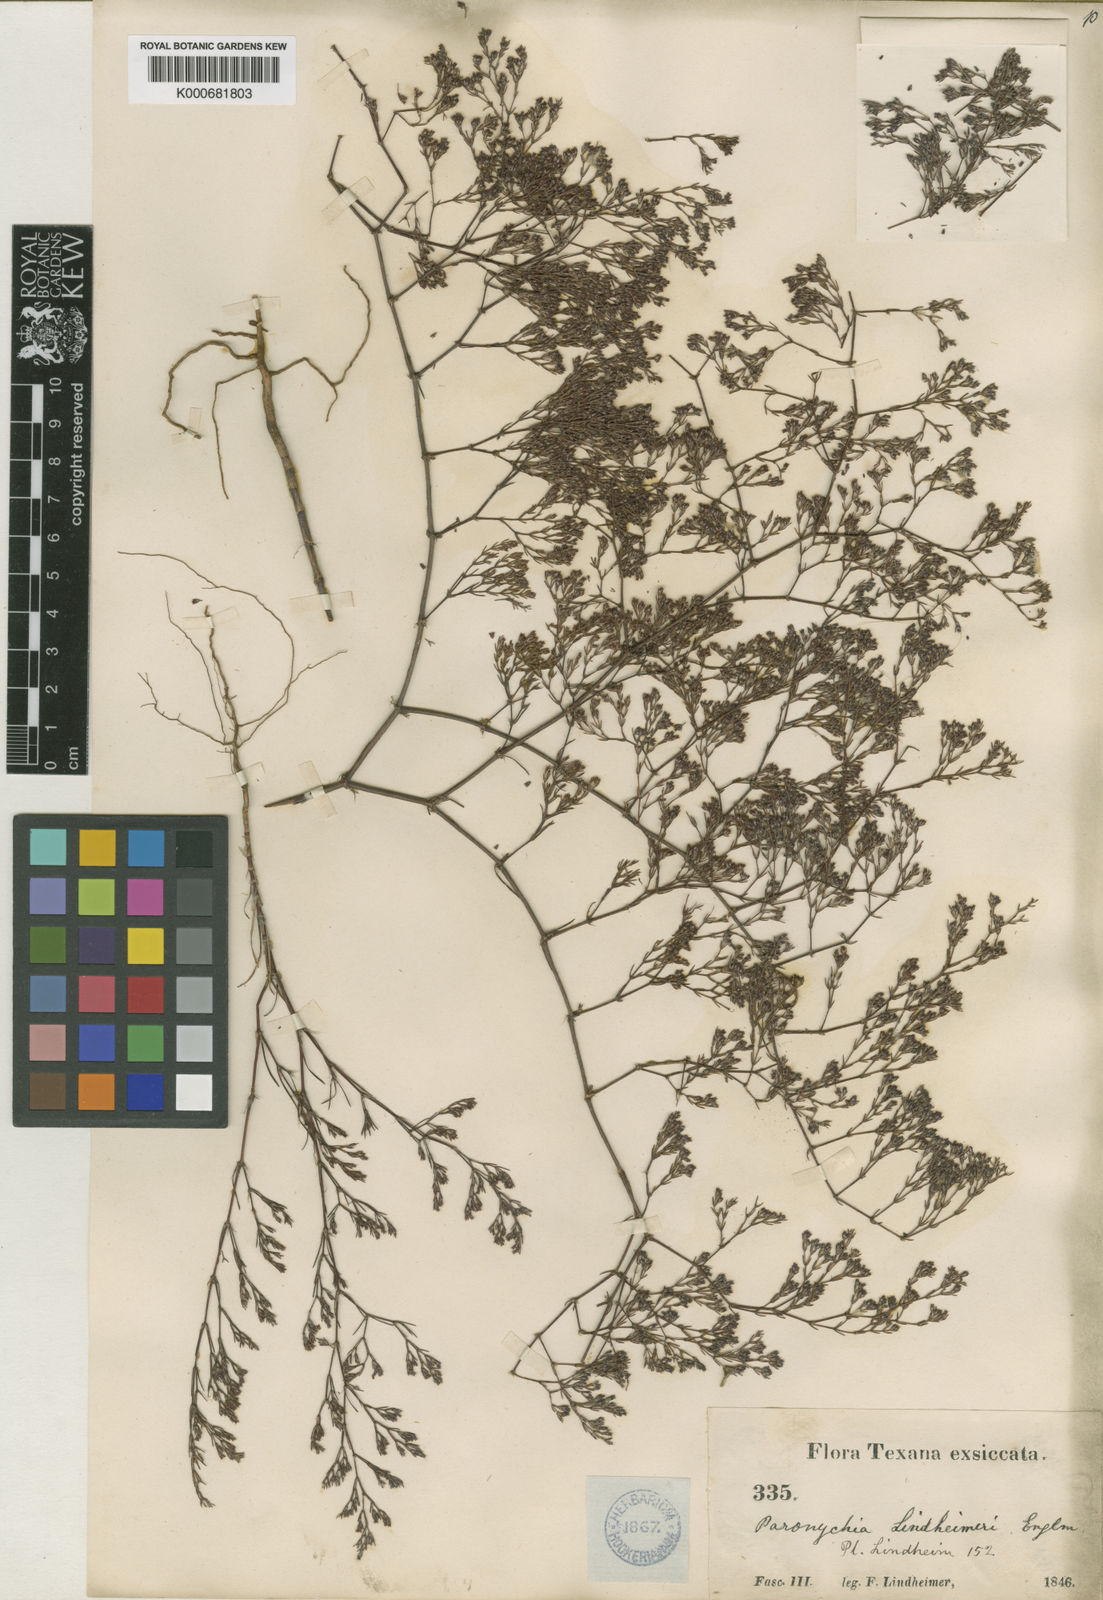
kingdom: Plantae
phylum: Tracheophyta
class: Magnoliopsida
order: Caryophyllales
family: Caryophyllaceae
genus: Paronychia
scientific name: Paronychia lindheimeri
